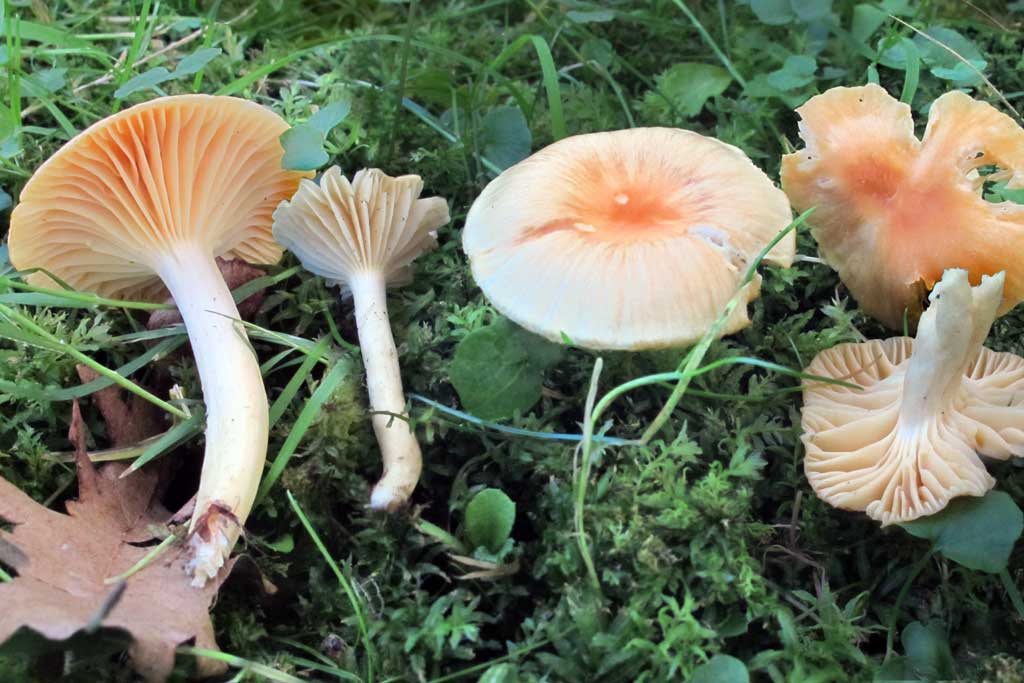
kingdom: Fungi
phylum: Basidiomycota
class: Agaricomycetes
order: Agaricales
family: Hygrophoraceae
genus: Cuphophyllus
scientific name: Cuphophyllus pratensis
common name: eng-vokshat
